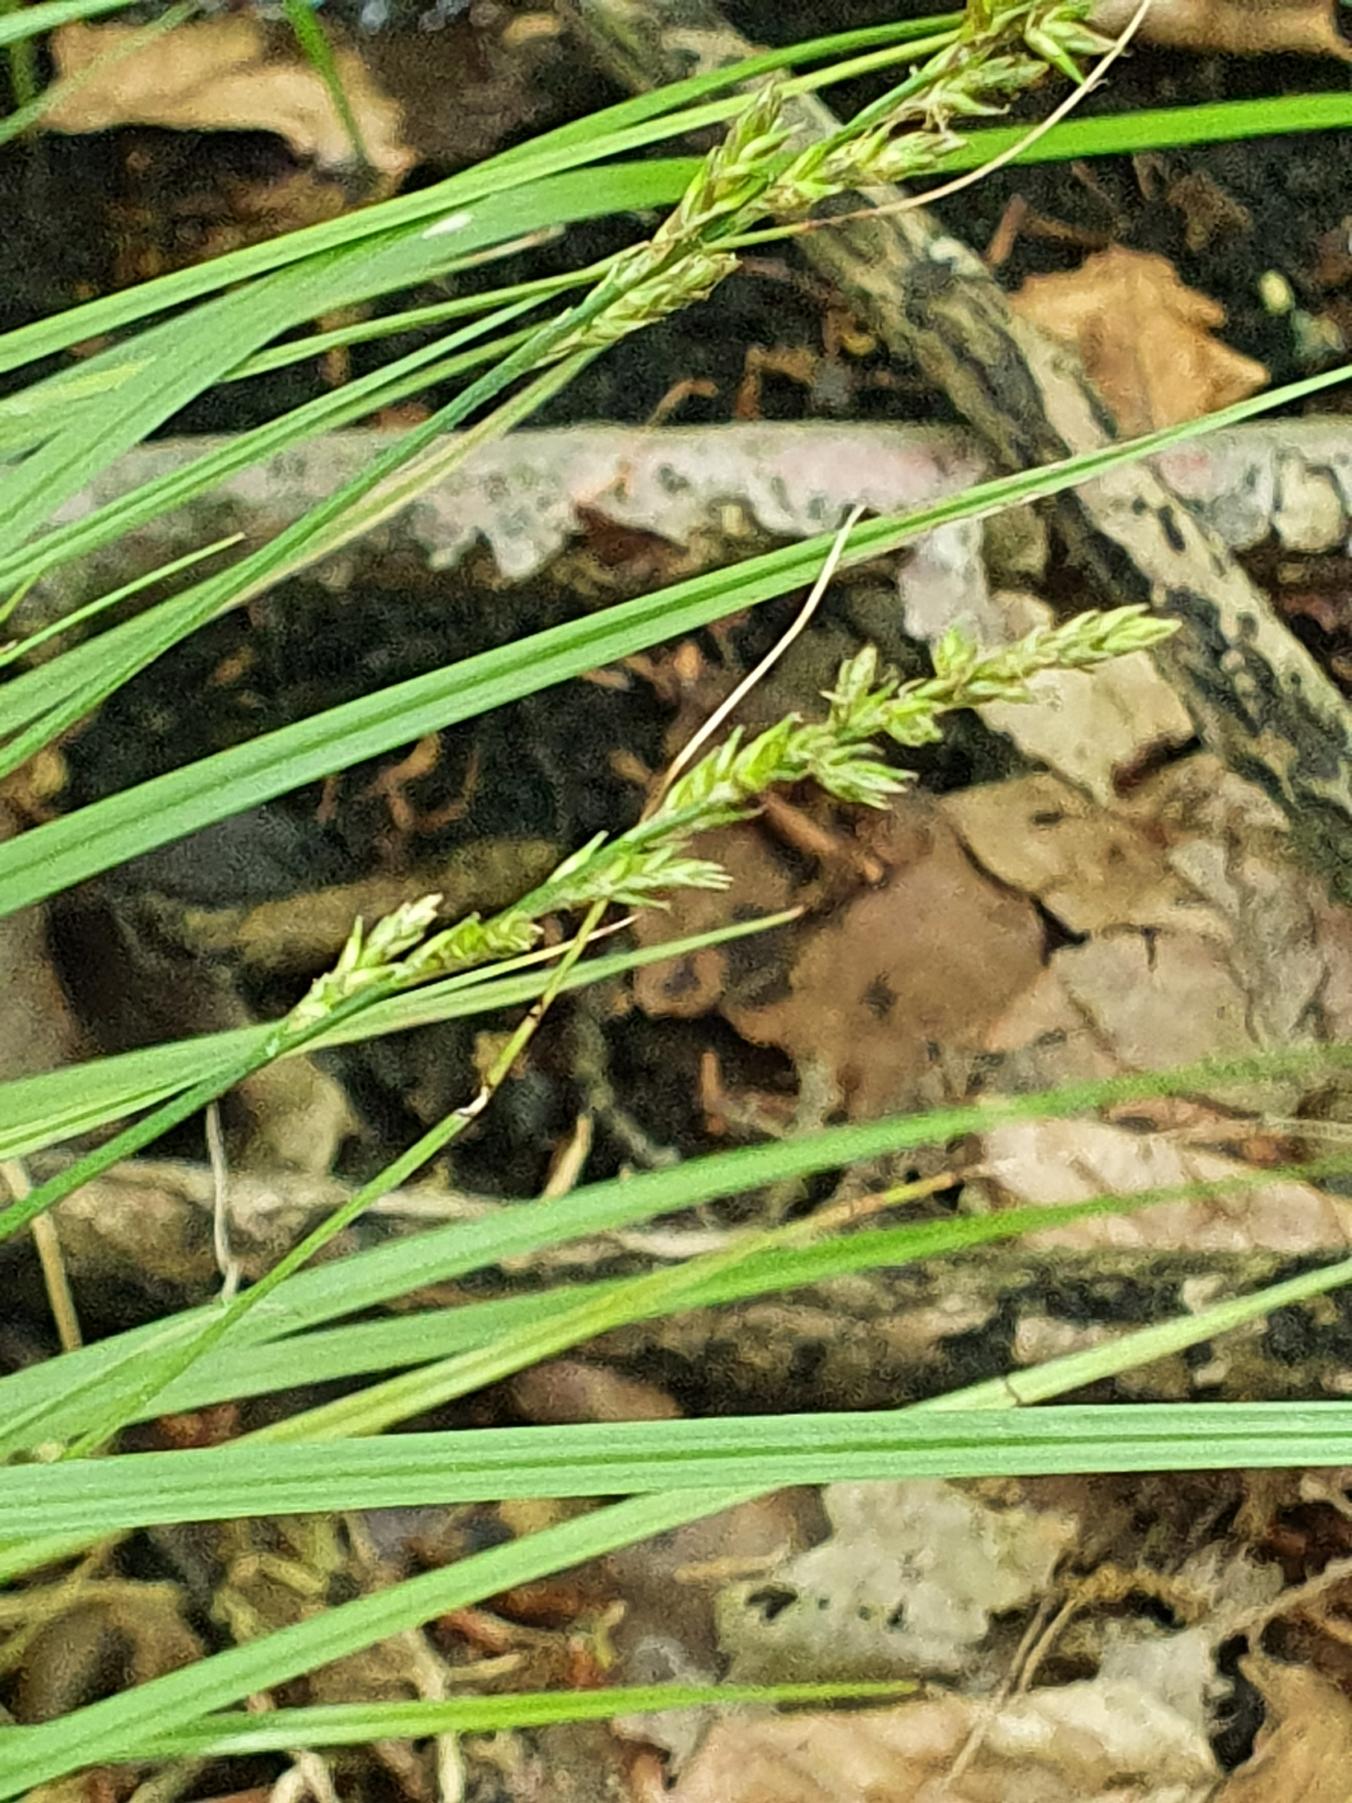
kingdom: Plantae
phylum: Tracheophyta
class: Liliopsida
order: Poales
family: Cyperaceae
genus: Carex
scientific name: Carex elongata
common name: Forlænget star
